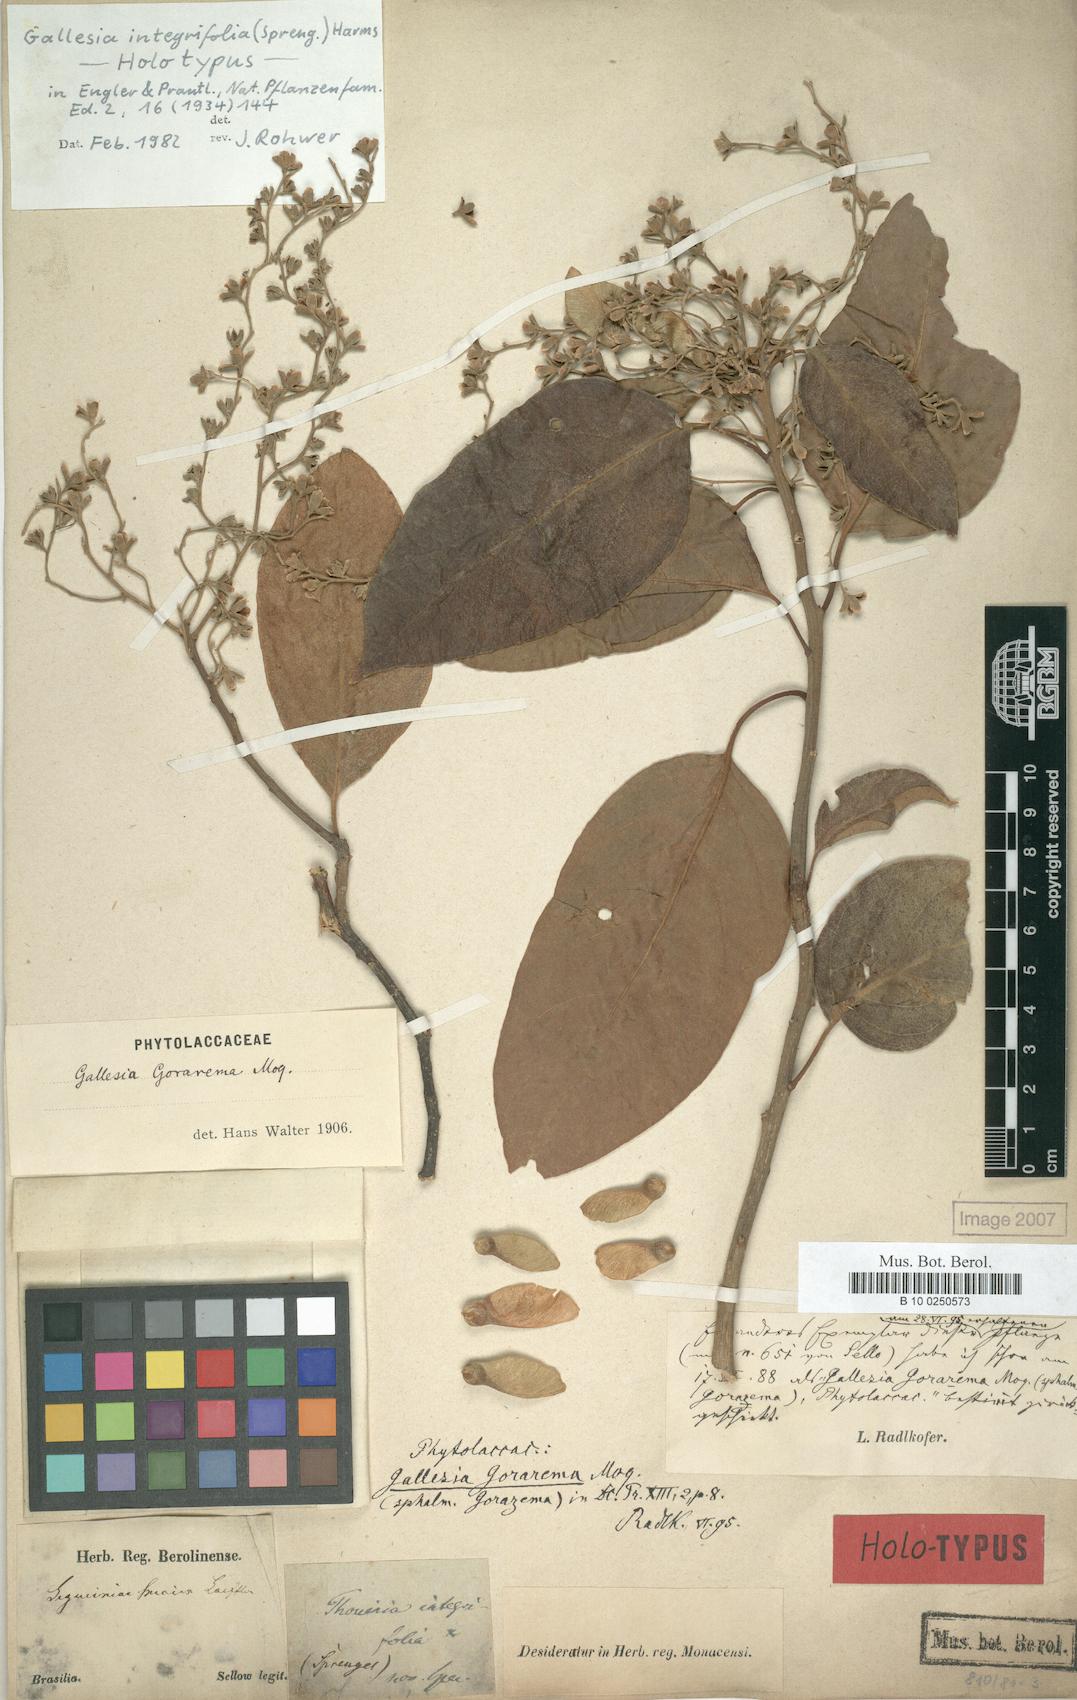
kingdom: Plantae
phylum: Tracheophyta
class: Magnoliopsida
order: Caryophyllales
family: Phytolaccaceae
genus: Gallesia
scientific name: Gallesia integrifolia
